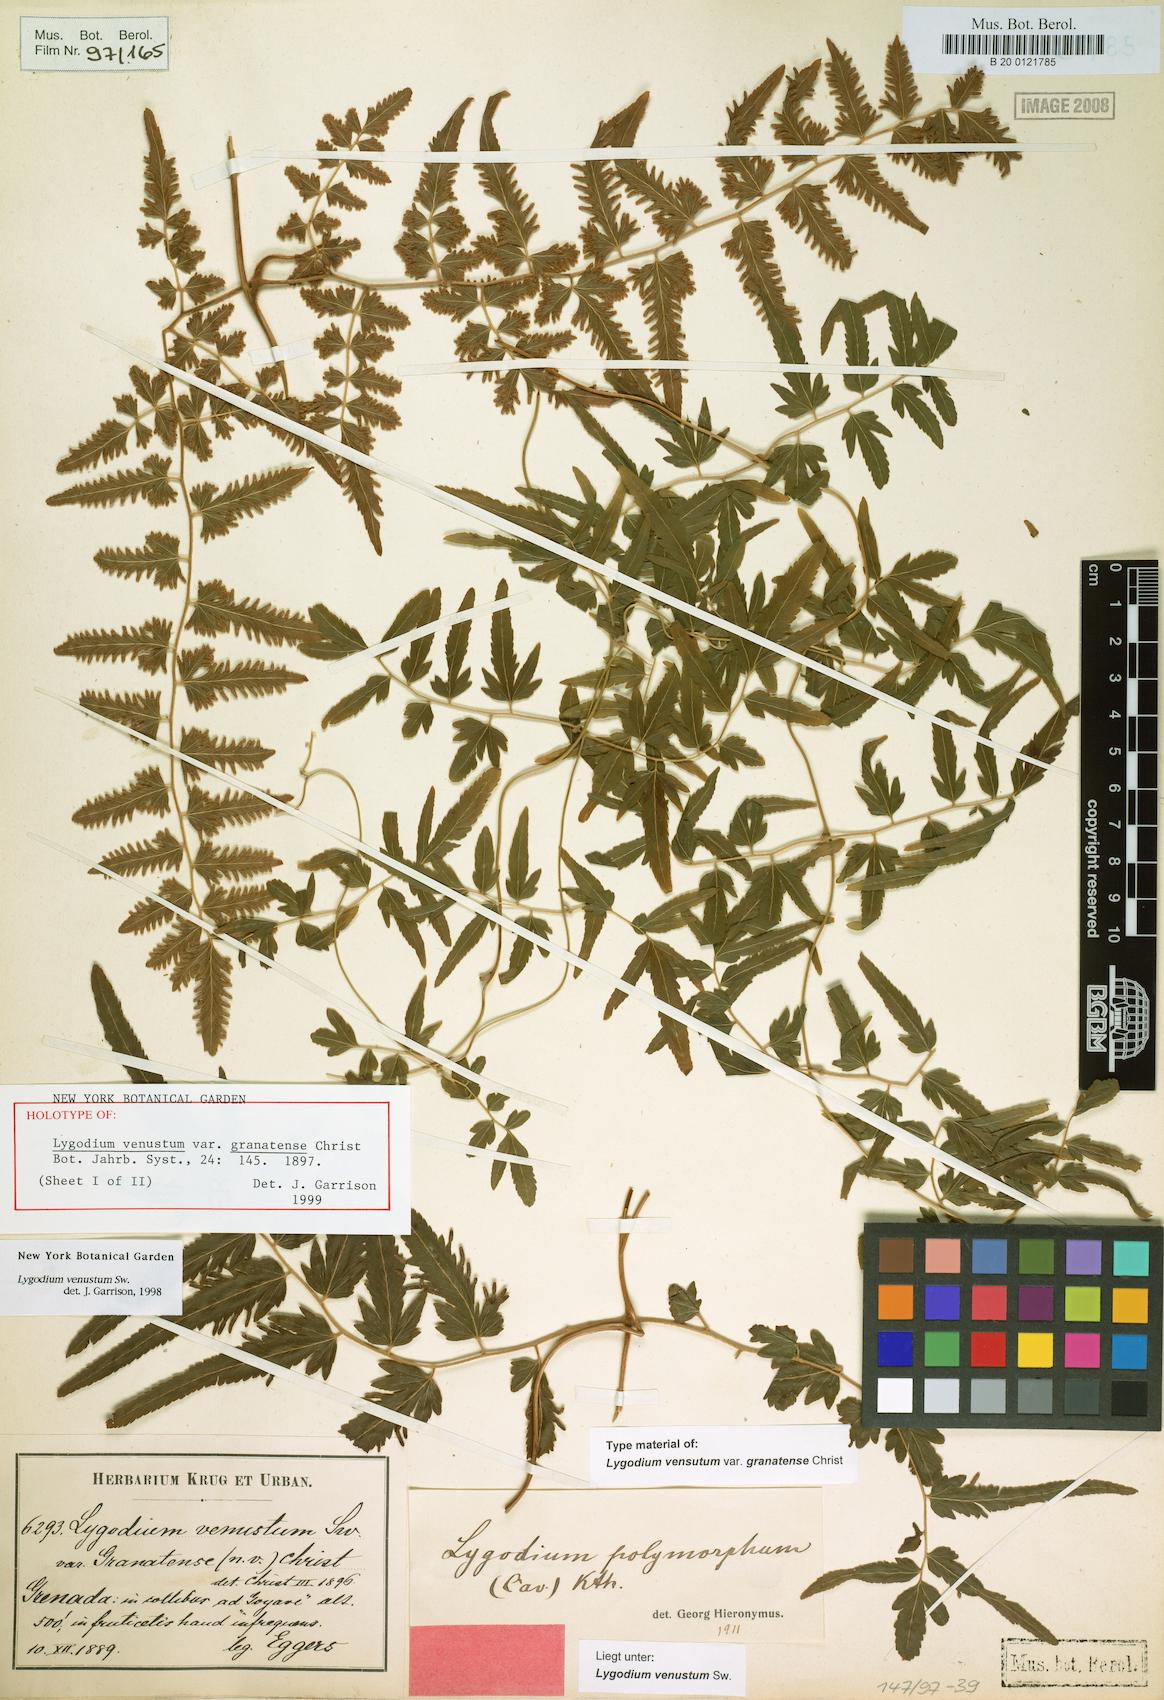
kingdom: Plantae
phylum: Tracheophyta
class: Polypodiopsida
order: Schizaeales
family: Lygodiaceae
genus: Lygodium
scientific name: Lygodium venustum
